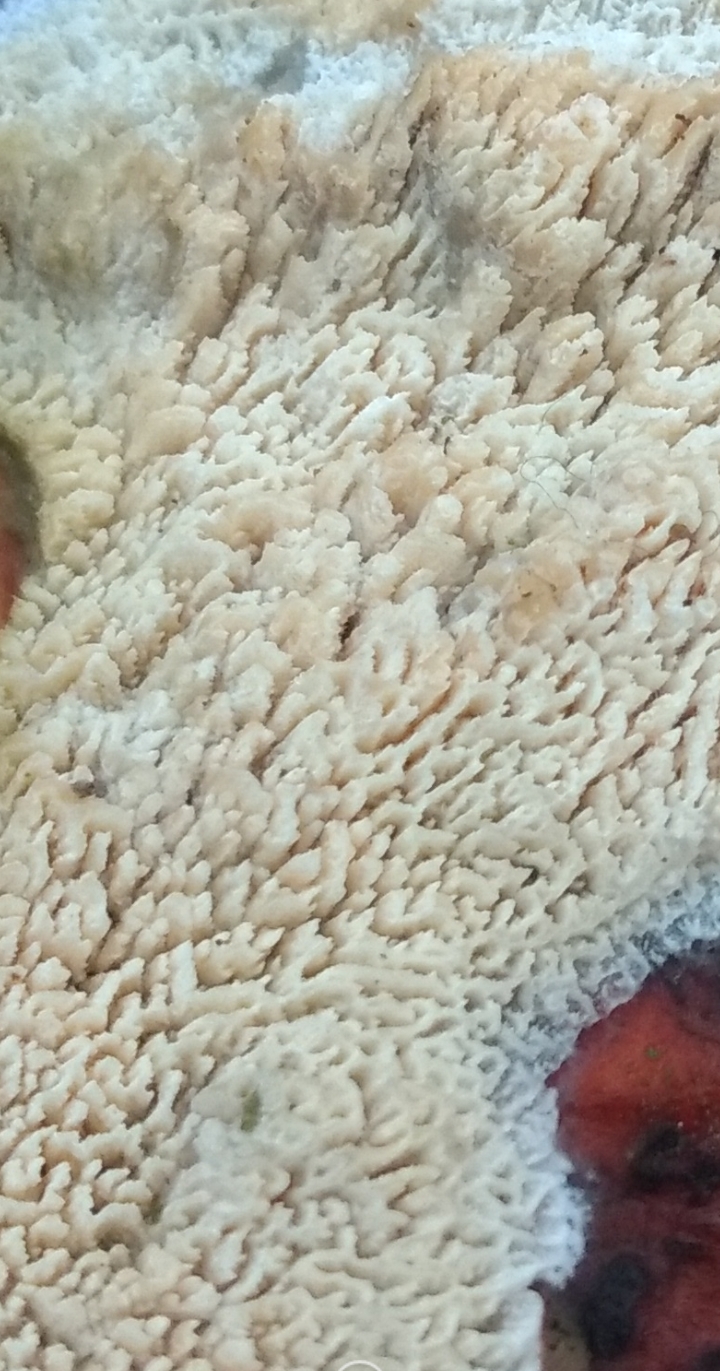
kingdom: Fungi
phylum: Basidiomycota
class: Agaricomycetes
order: Hymenochaetales
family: Schizoporaceae
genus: Schizopora
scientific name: Schizopora paradoxa
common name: hvid tandsvamp
